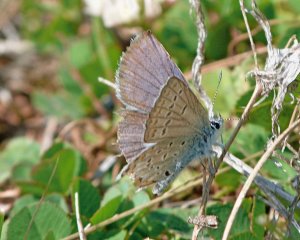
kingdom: Animalia
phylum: Arthropoda
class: Insecta
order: Lepidoptera
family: Lycaenidae
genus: Lycaeides
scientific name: Lycaeides melissa
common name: Melissa Blue
